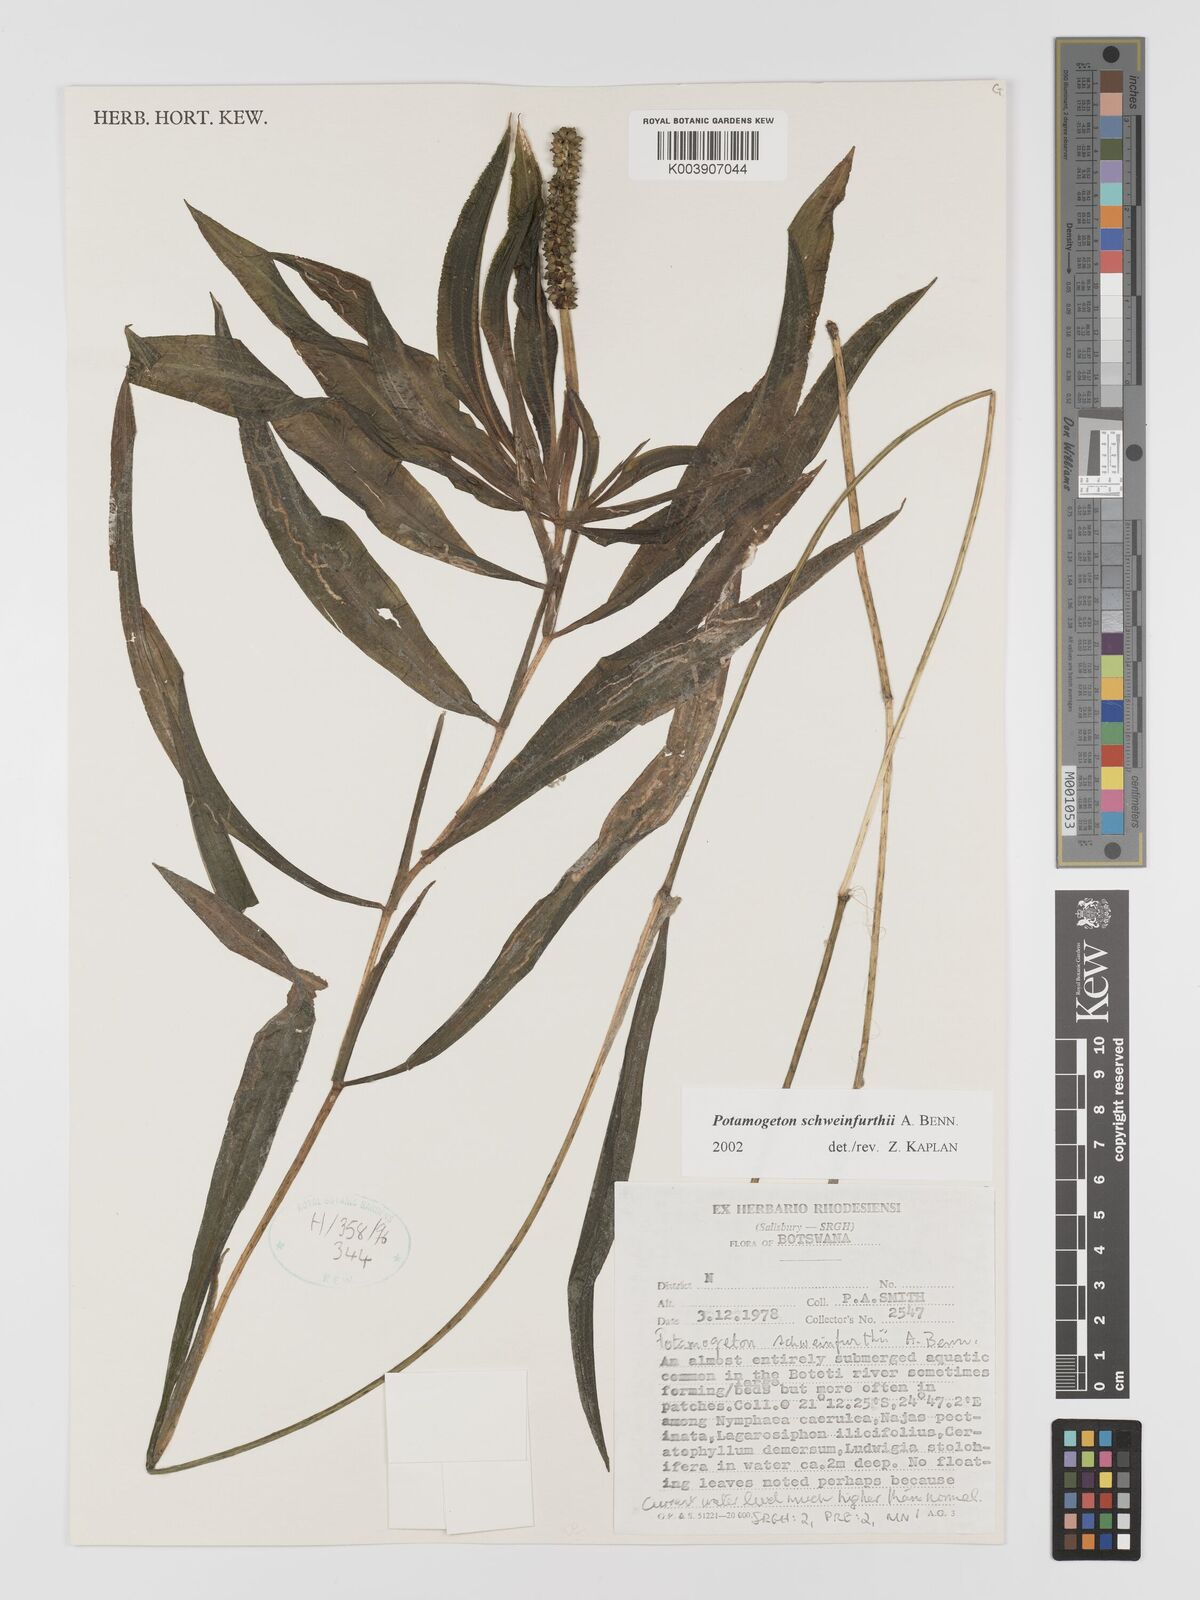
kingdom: Plantae
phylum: Tracheophyta
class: Liliopsida
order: Alismatales
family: Potamogetonaceae
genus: Potamogeton
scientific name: Potamogeton schweinfurthii
